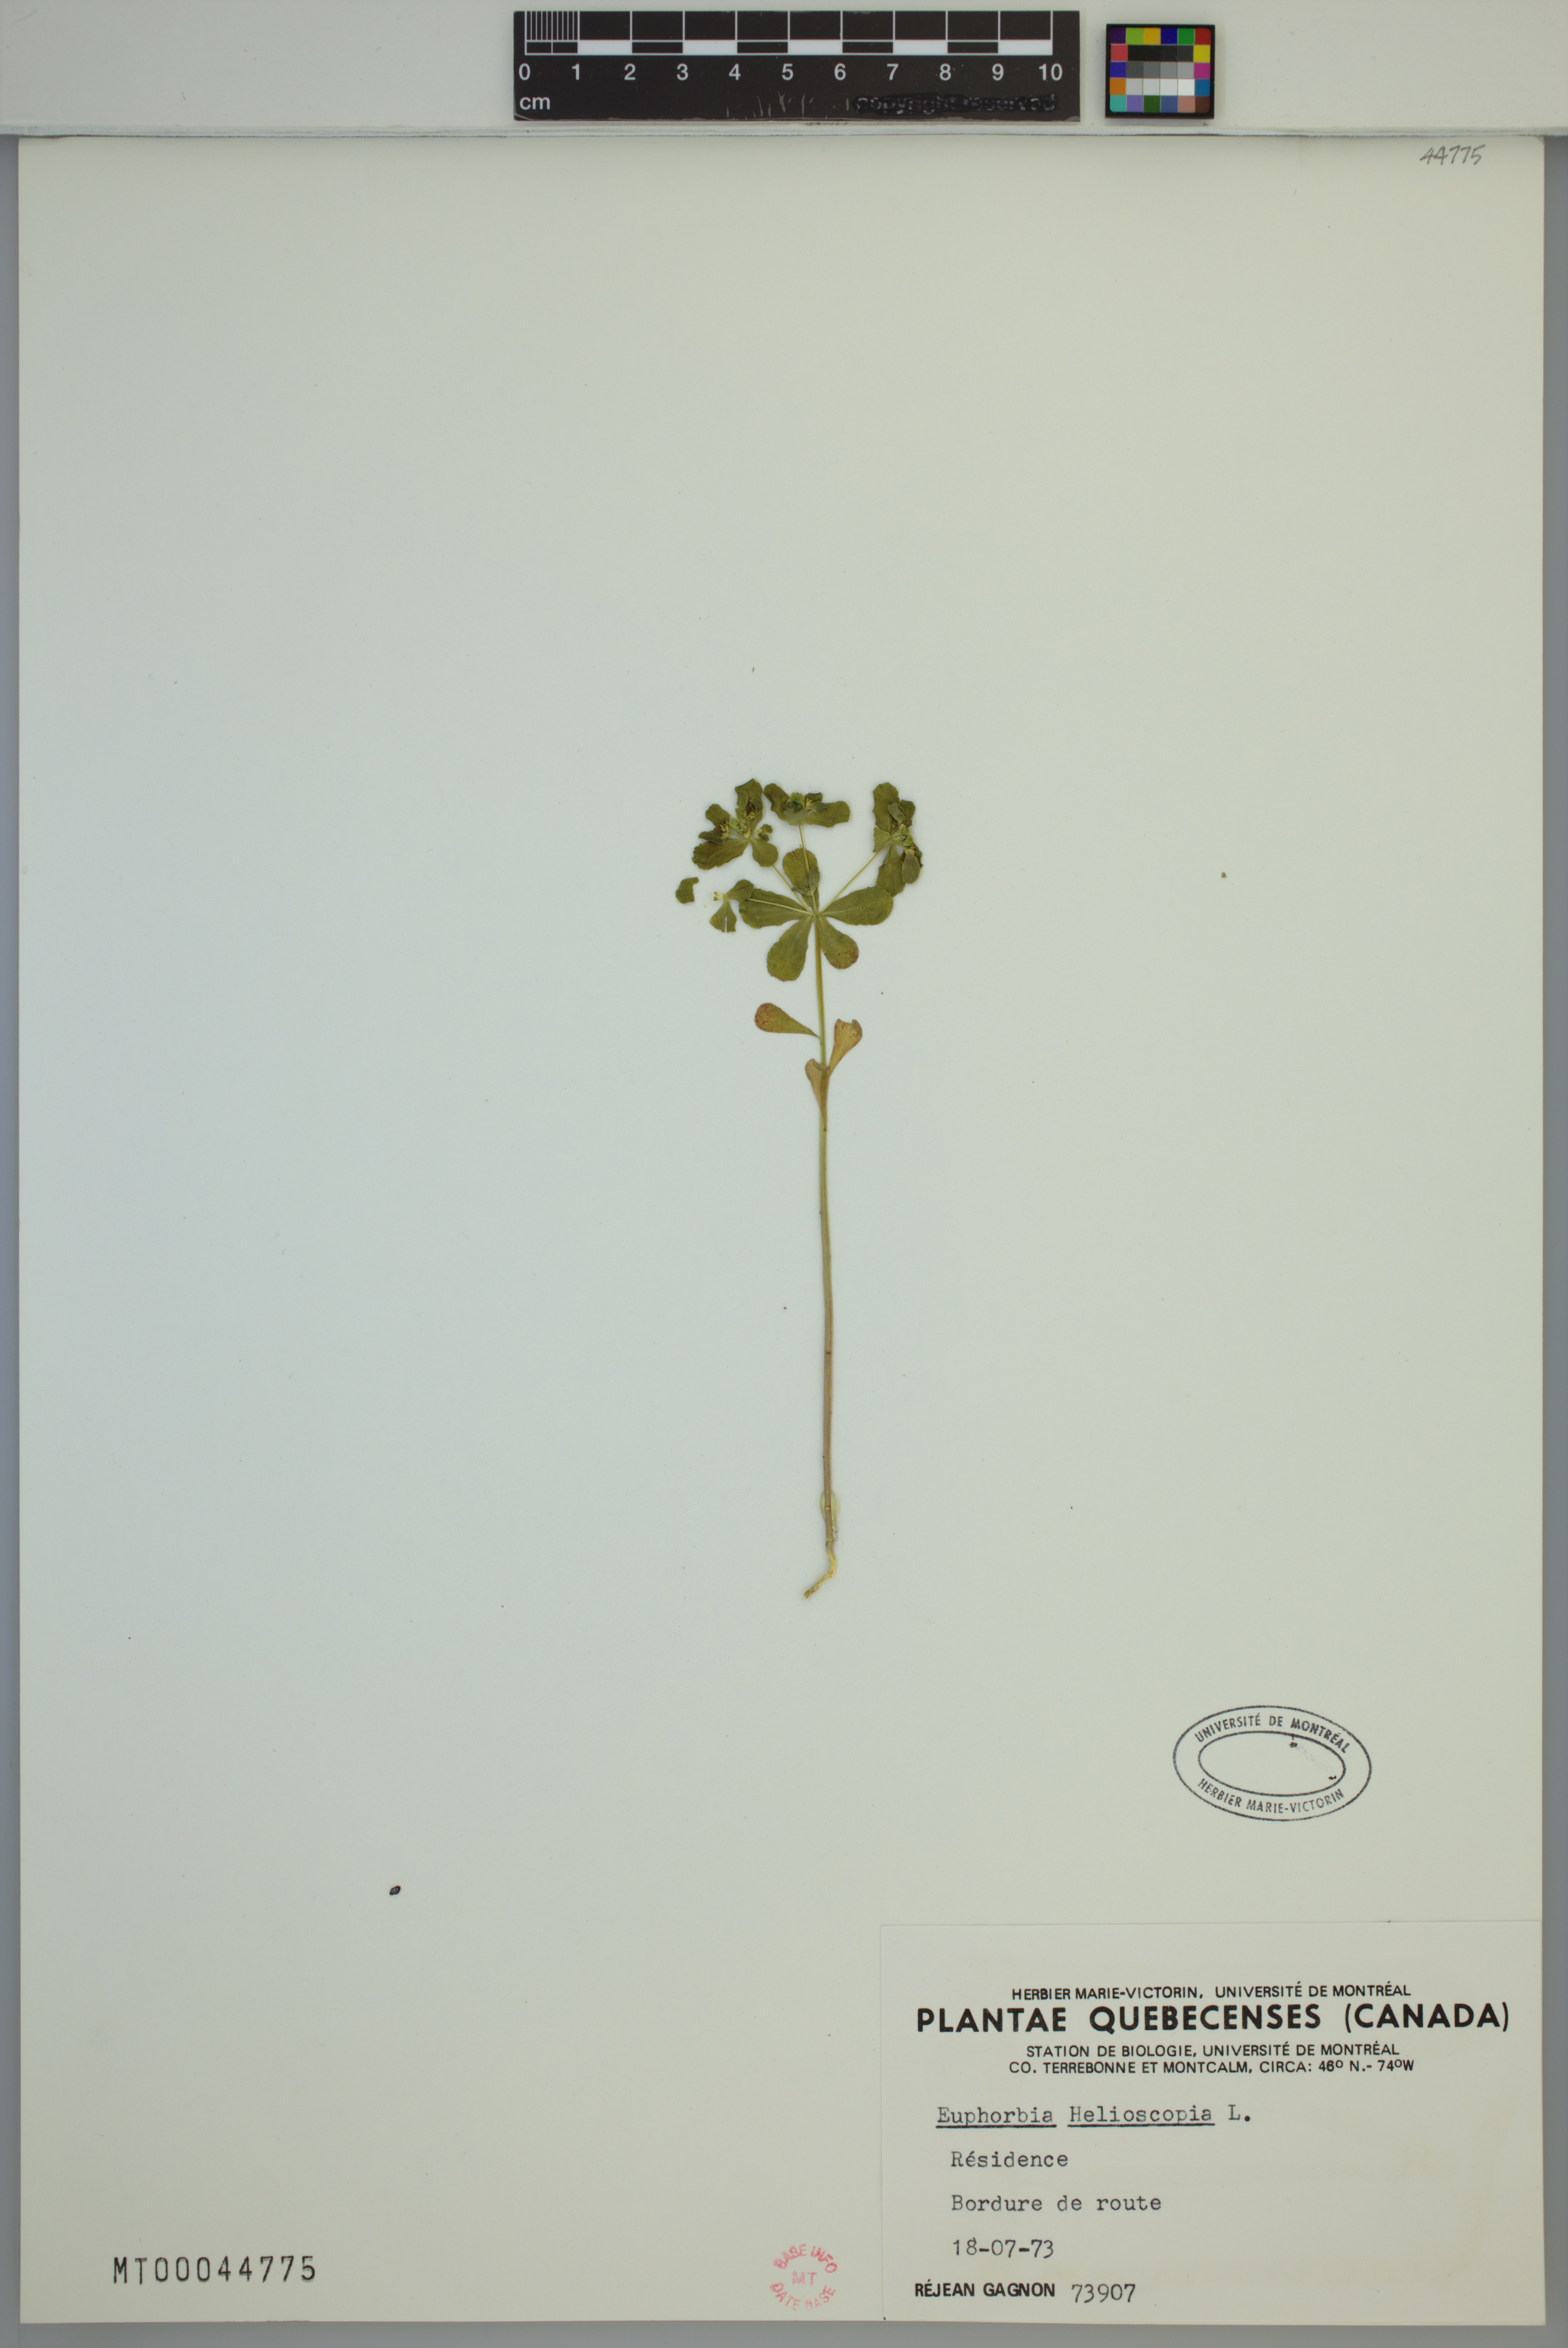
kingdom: Plantae
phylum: Tracheophyta
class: Magnoliopsida
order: Malpighiales
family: Euphorbiaceae
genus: Euphorbia
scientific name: Euphorbia helioscopia
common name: Sun spurge
